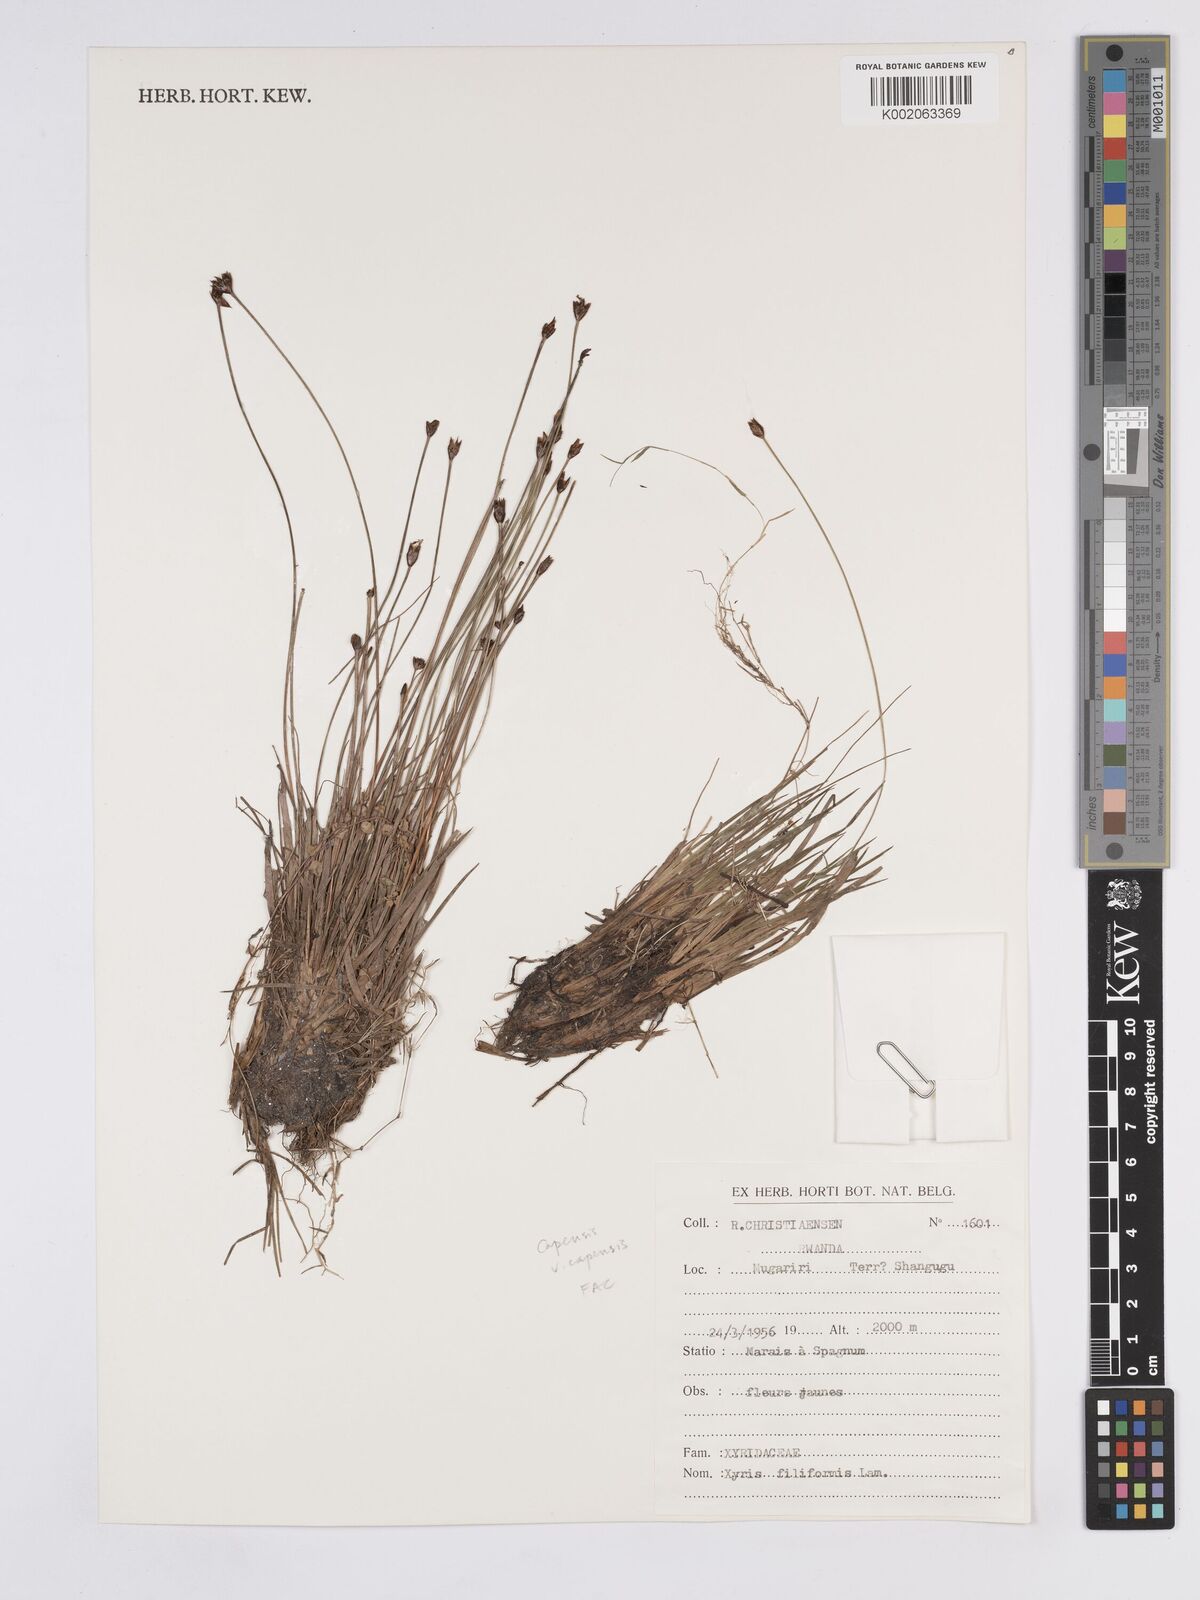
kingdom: Plantae
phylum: Tracheophyta
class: Liliopsida
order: Poales
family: Xyridaceae
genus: Xyris
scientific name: Xyris filiformis
